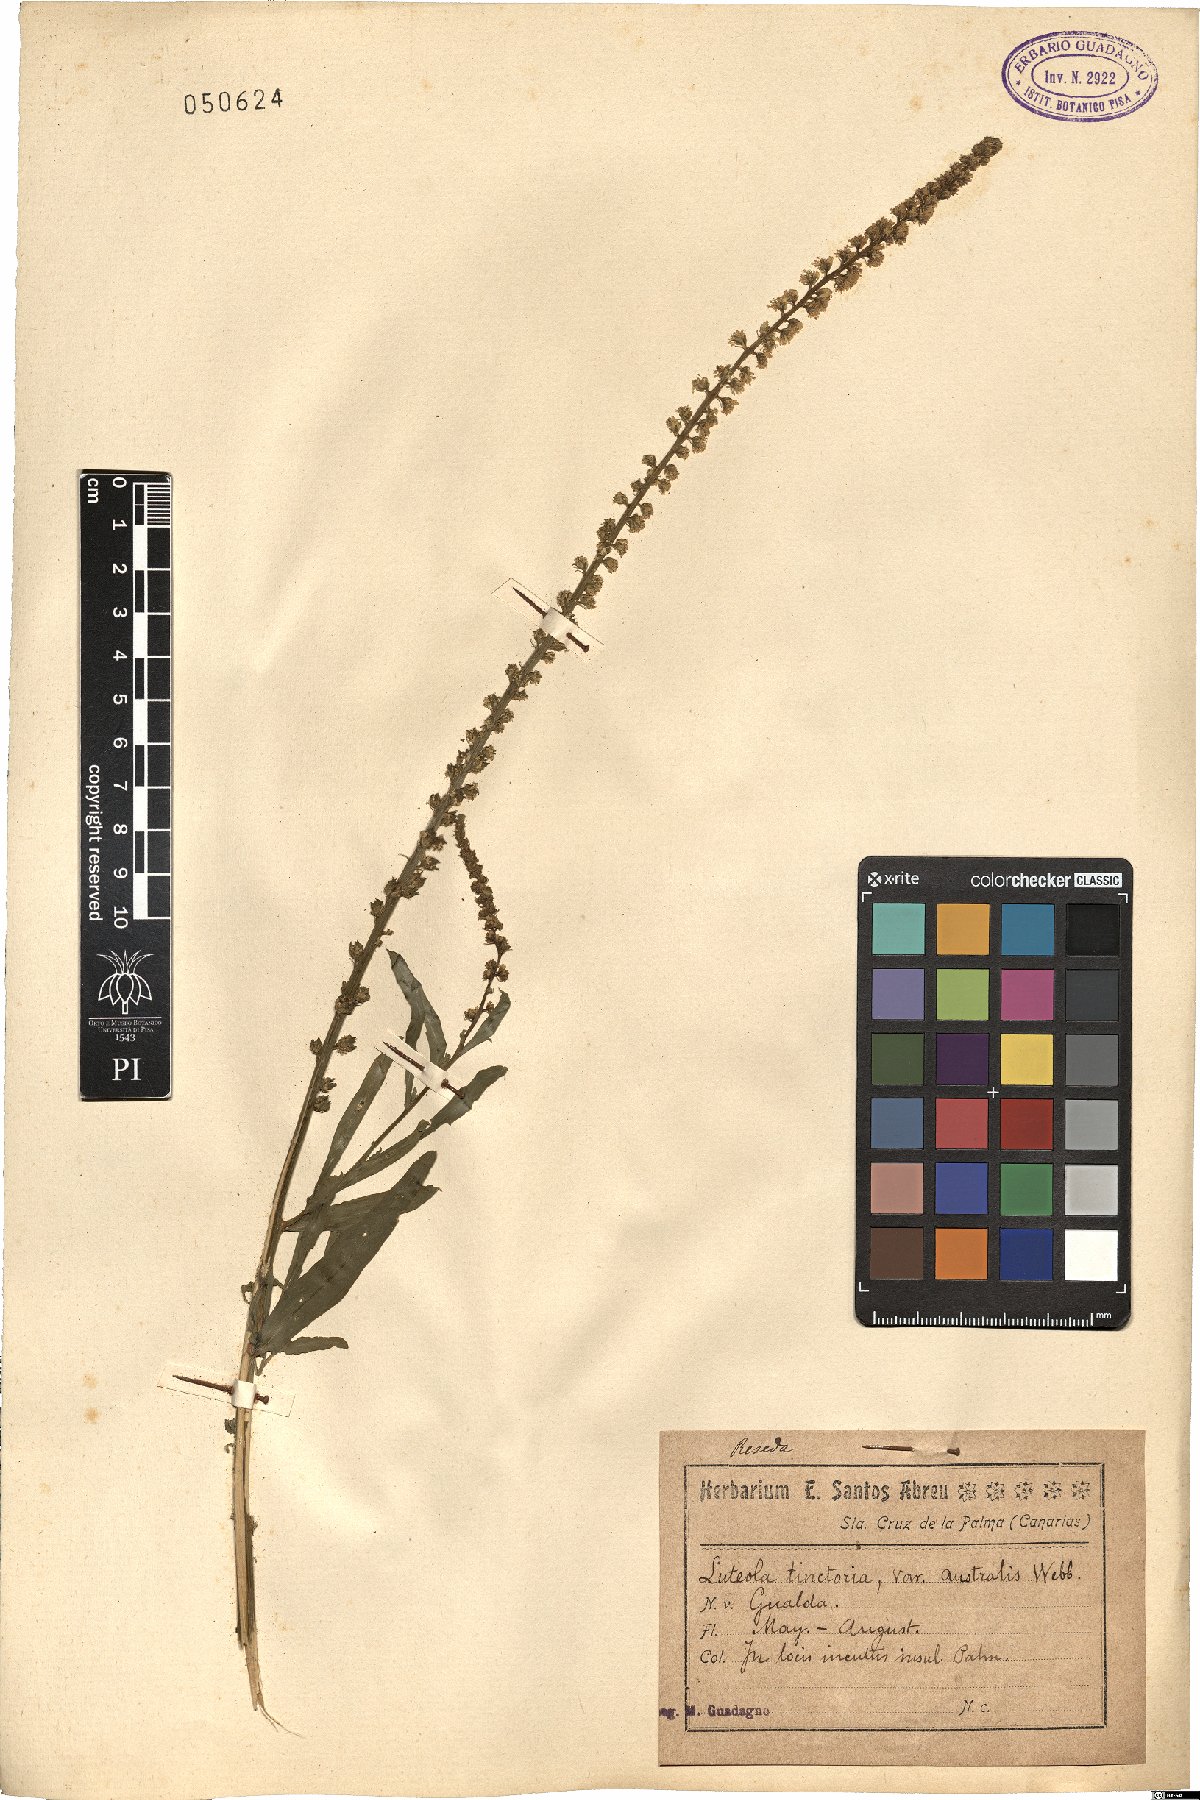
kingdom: Plantae
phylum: Tracheophyta
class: Magnoliopsida
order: Brassicales
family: Resedaceae
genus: Reseda
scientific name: Reseda luteola
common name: Weld
